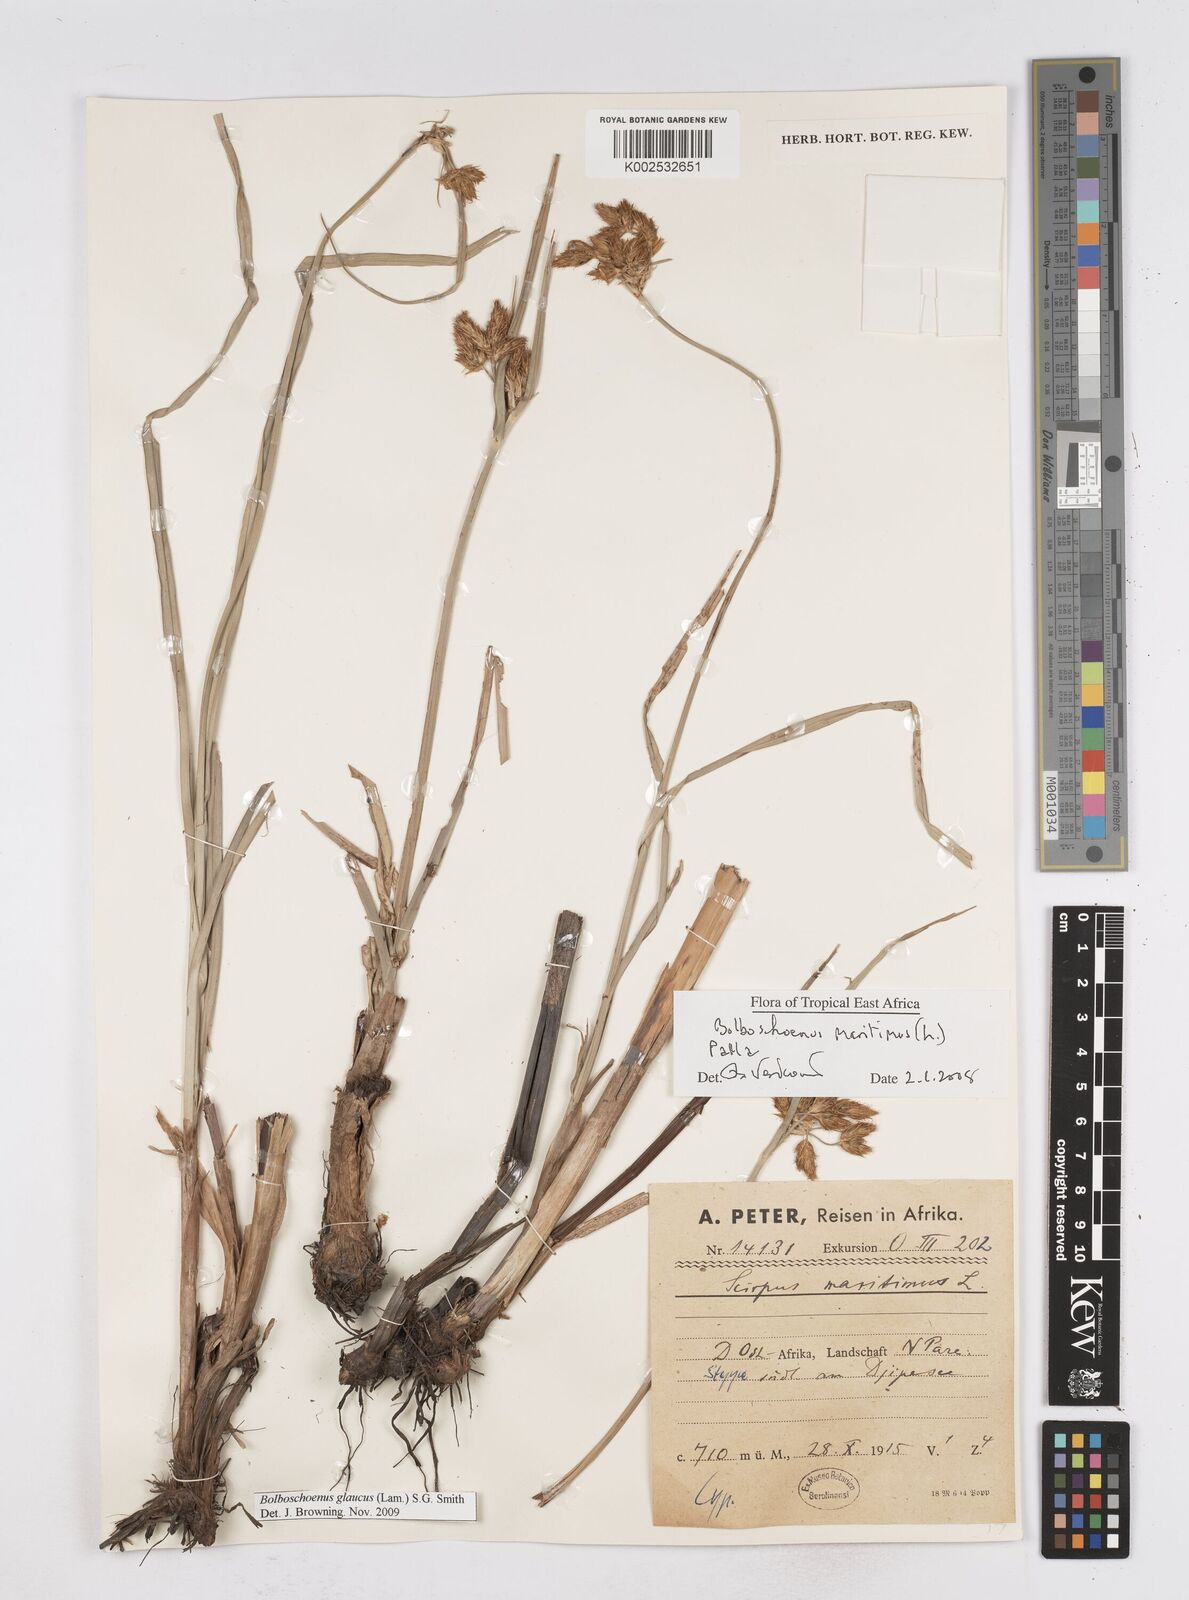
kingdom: Plantae
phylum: Tracheophyta
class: Liliopsida
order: Poales
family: Cyperaceae
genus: Bolboschoenus
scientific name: Bolboschoenus glaucus
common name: Tuberous bulrush
